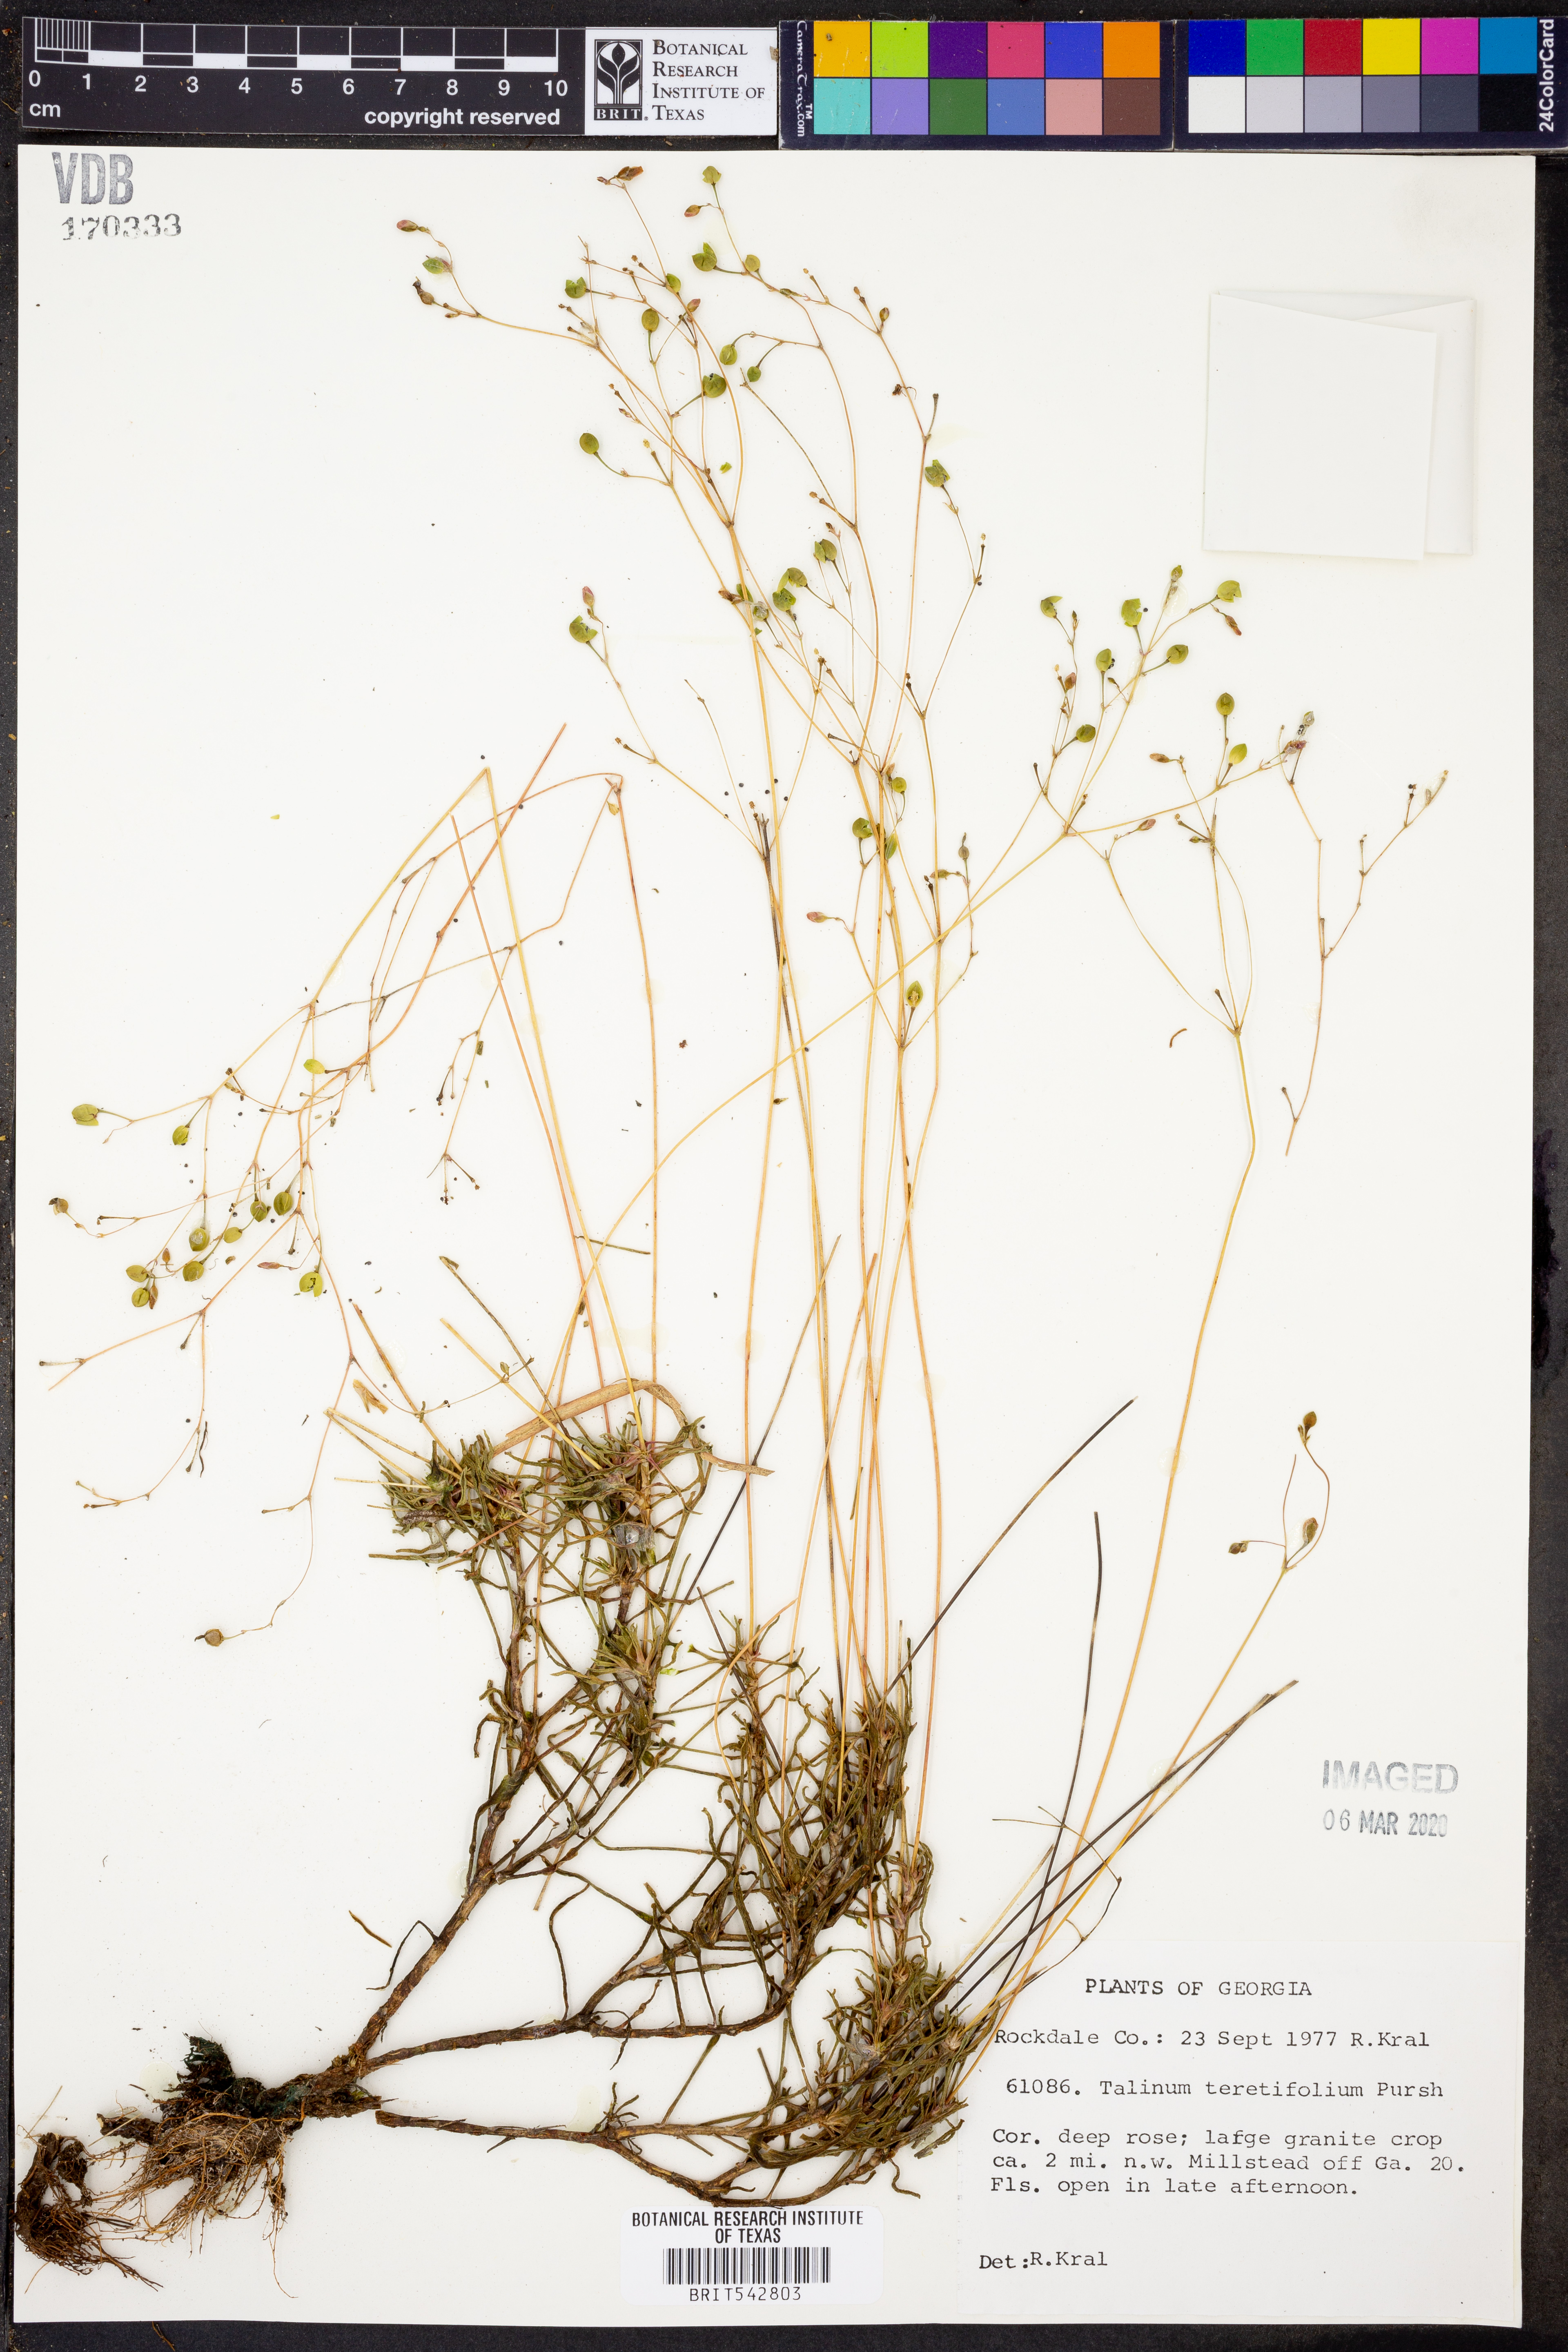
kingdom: Plantae
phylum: Tracheophyta
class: Magnoliopsida
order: Caryophyllales
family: Montiaceae
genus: Phemeranthus
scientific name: Phemeranthus teretifolius
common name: Quill fameflower
